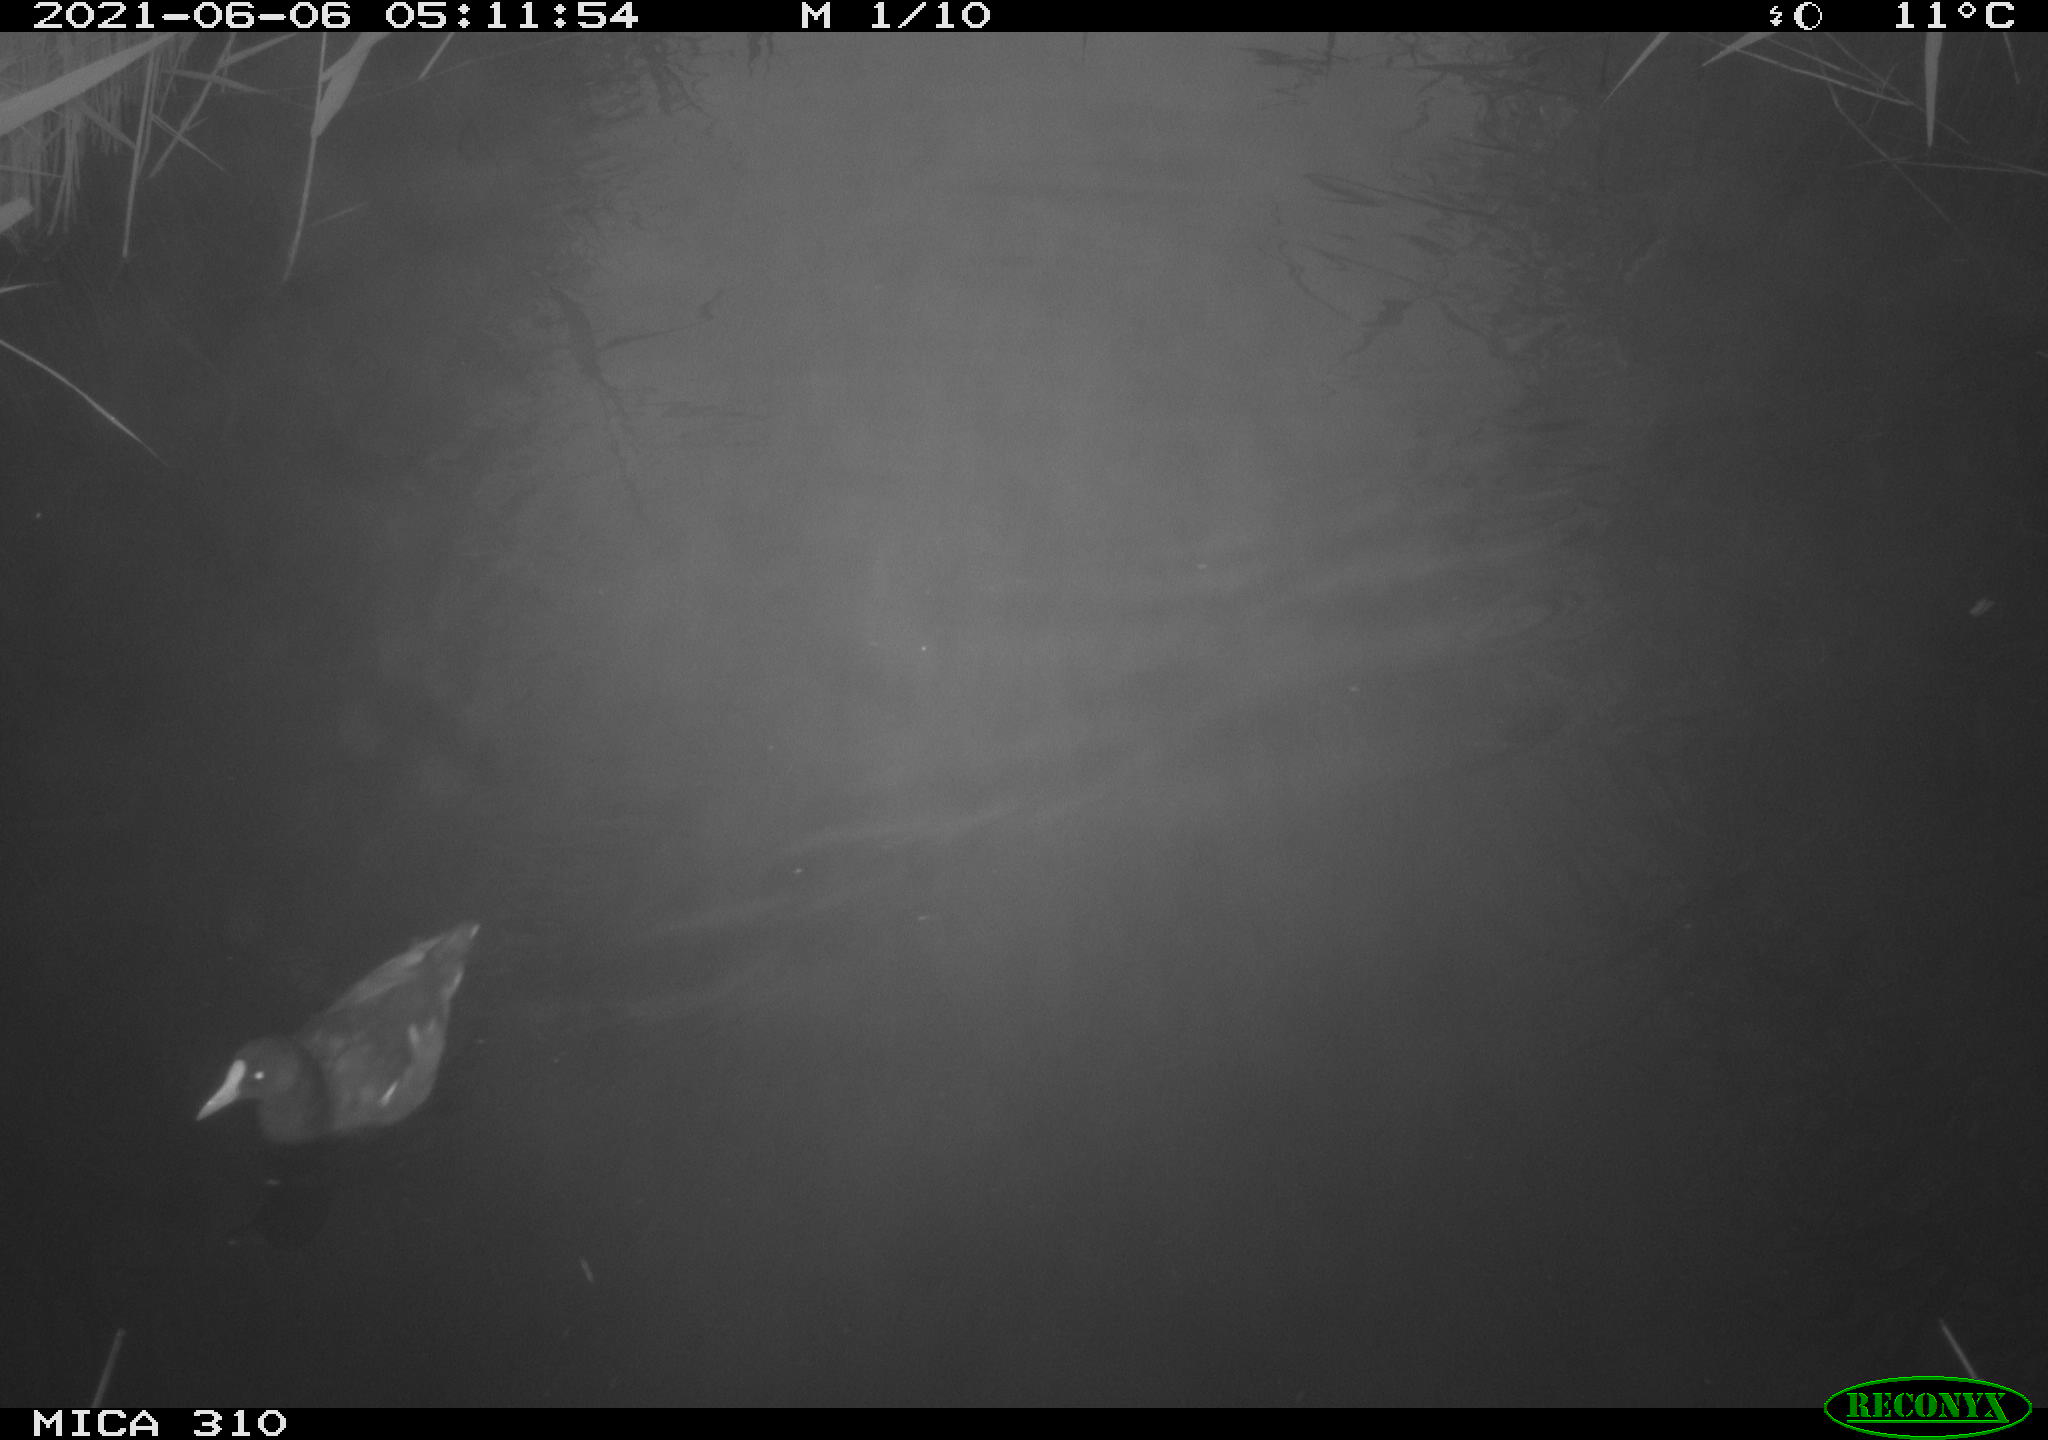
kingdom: Animalia
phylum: Chordata
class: Aves
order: Gruiformes
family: Rallidae
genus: Gallinula
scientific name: Gallinula chloropus
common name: Common moorhen
